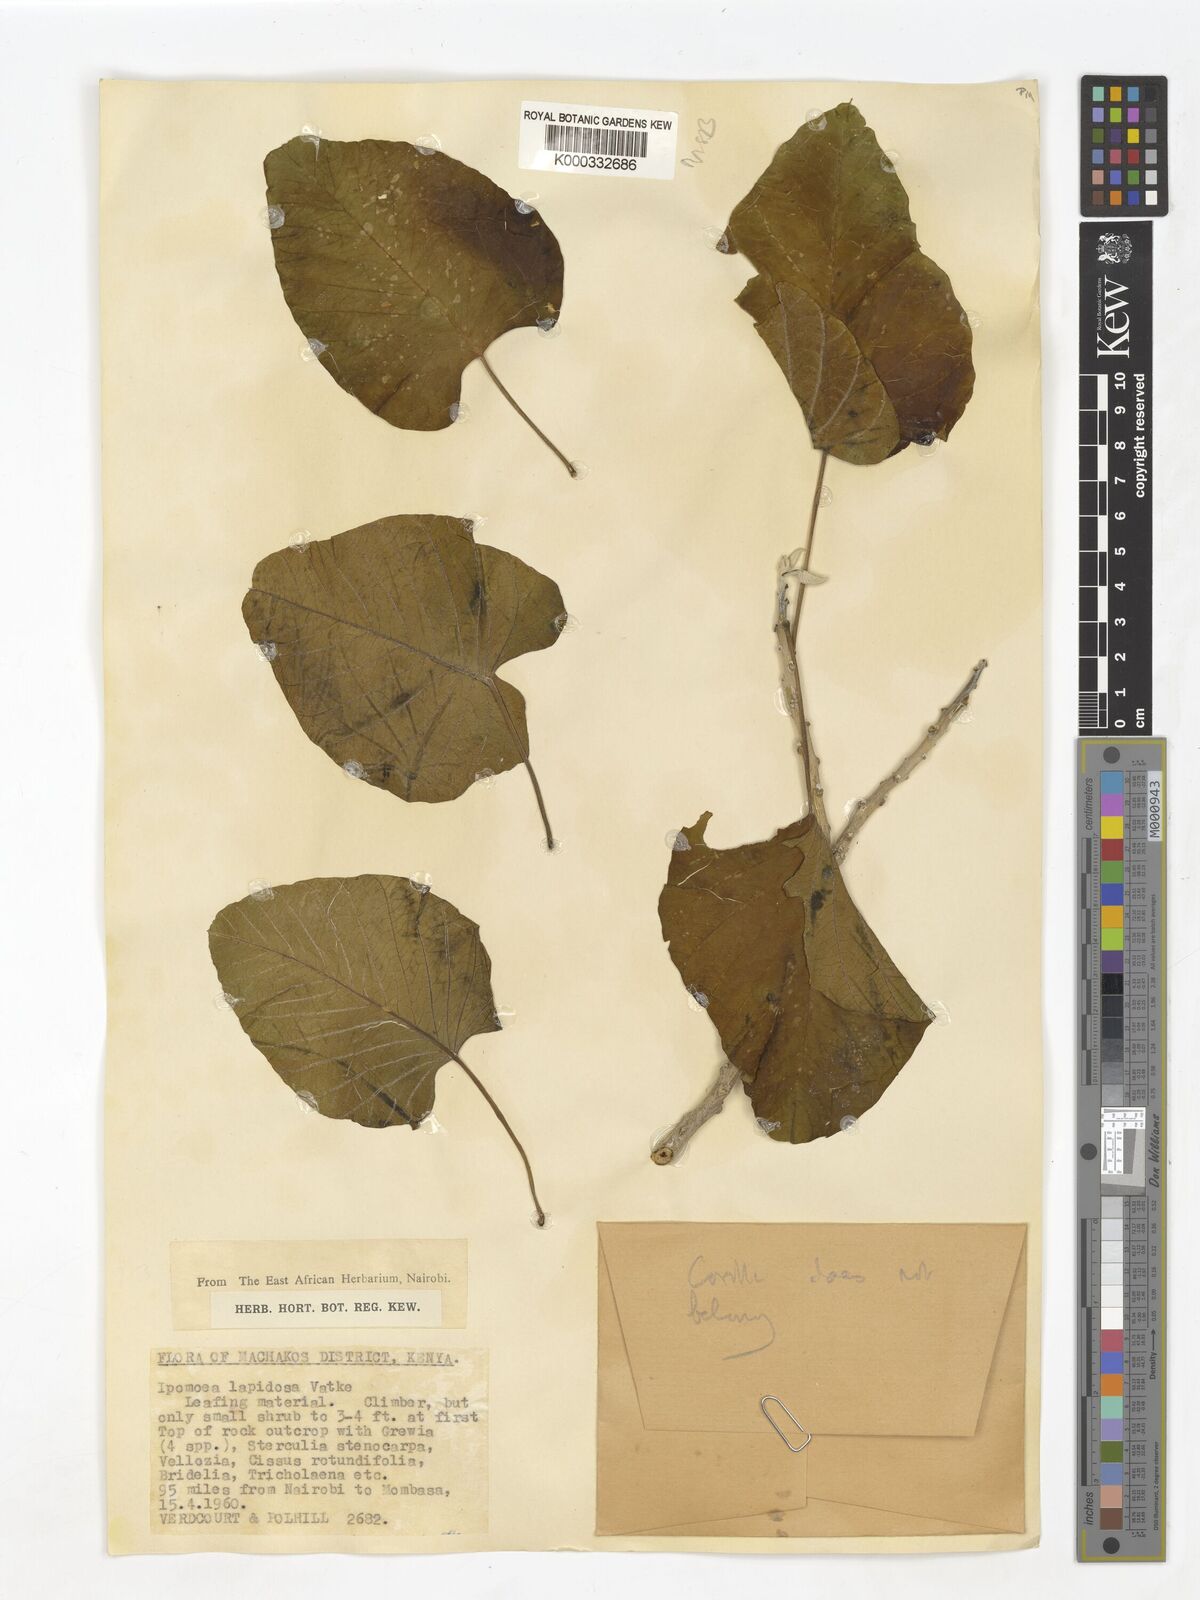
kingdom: Plantae
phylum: Tracheophyta
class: Magnoliopsida
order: Solanales
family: Convolvulaceae
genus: Ipomoea
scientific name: Ipomoea lapidosa
